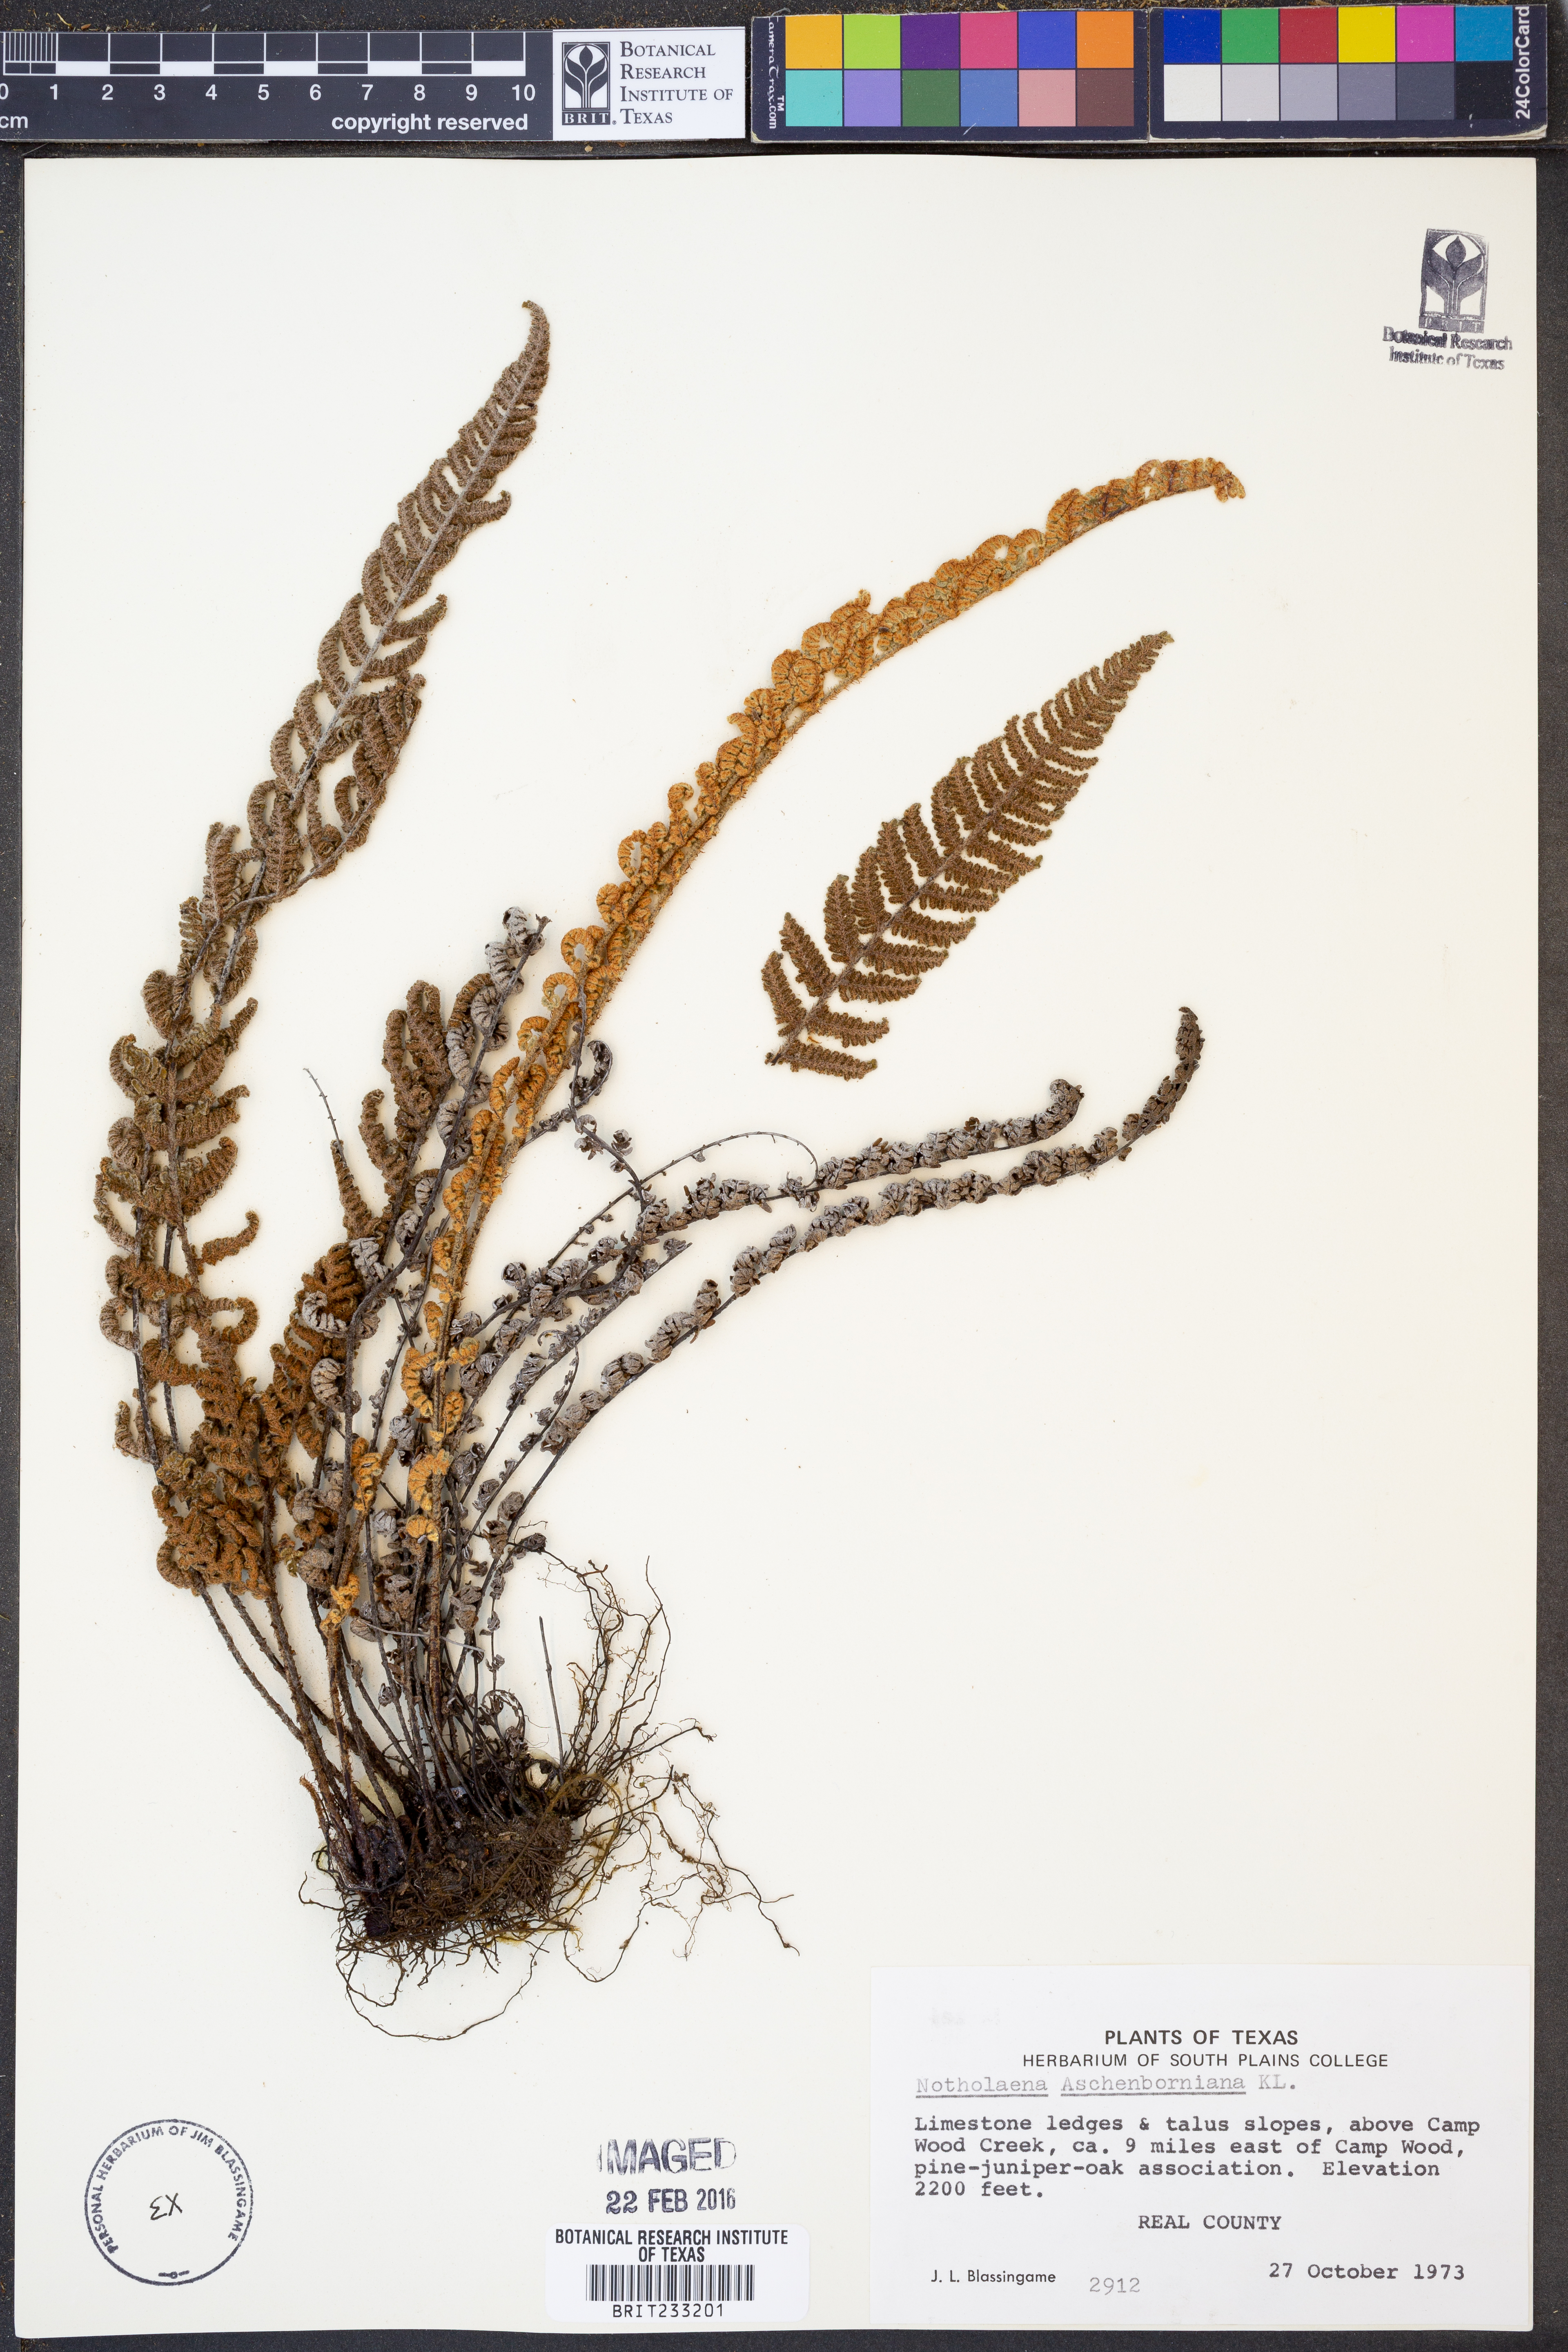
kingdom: Plantae
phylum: Tracheophyta
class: Polypodiopsida
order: Polypodiales
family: Pteridaceae
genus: Notholaena
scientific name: Notholaena aschenborniana
